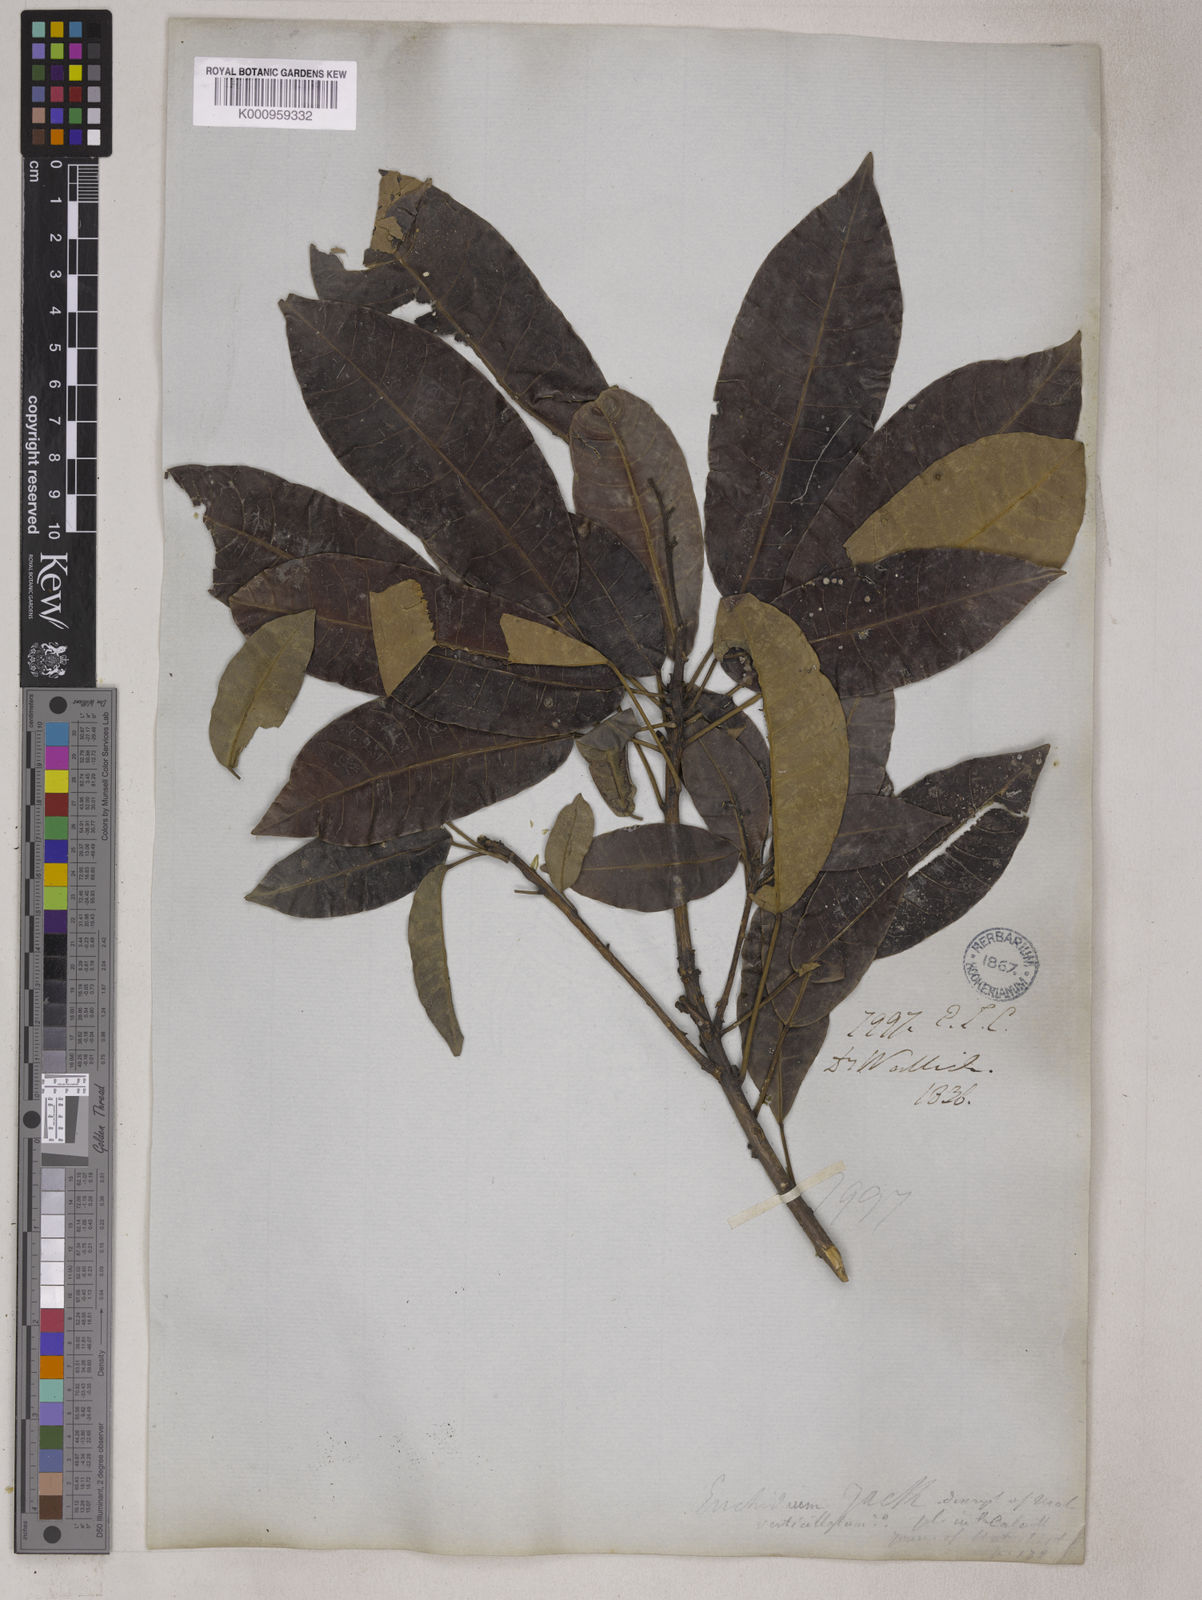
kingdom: Plantae
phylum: Tracheophyta
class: Magnoliopsida
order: Malpighiales
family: Euphorbiaceae
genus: Trigonostemon
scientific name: Trigonostemon verticillatus
